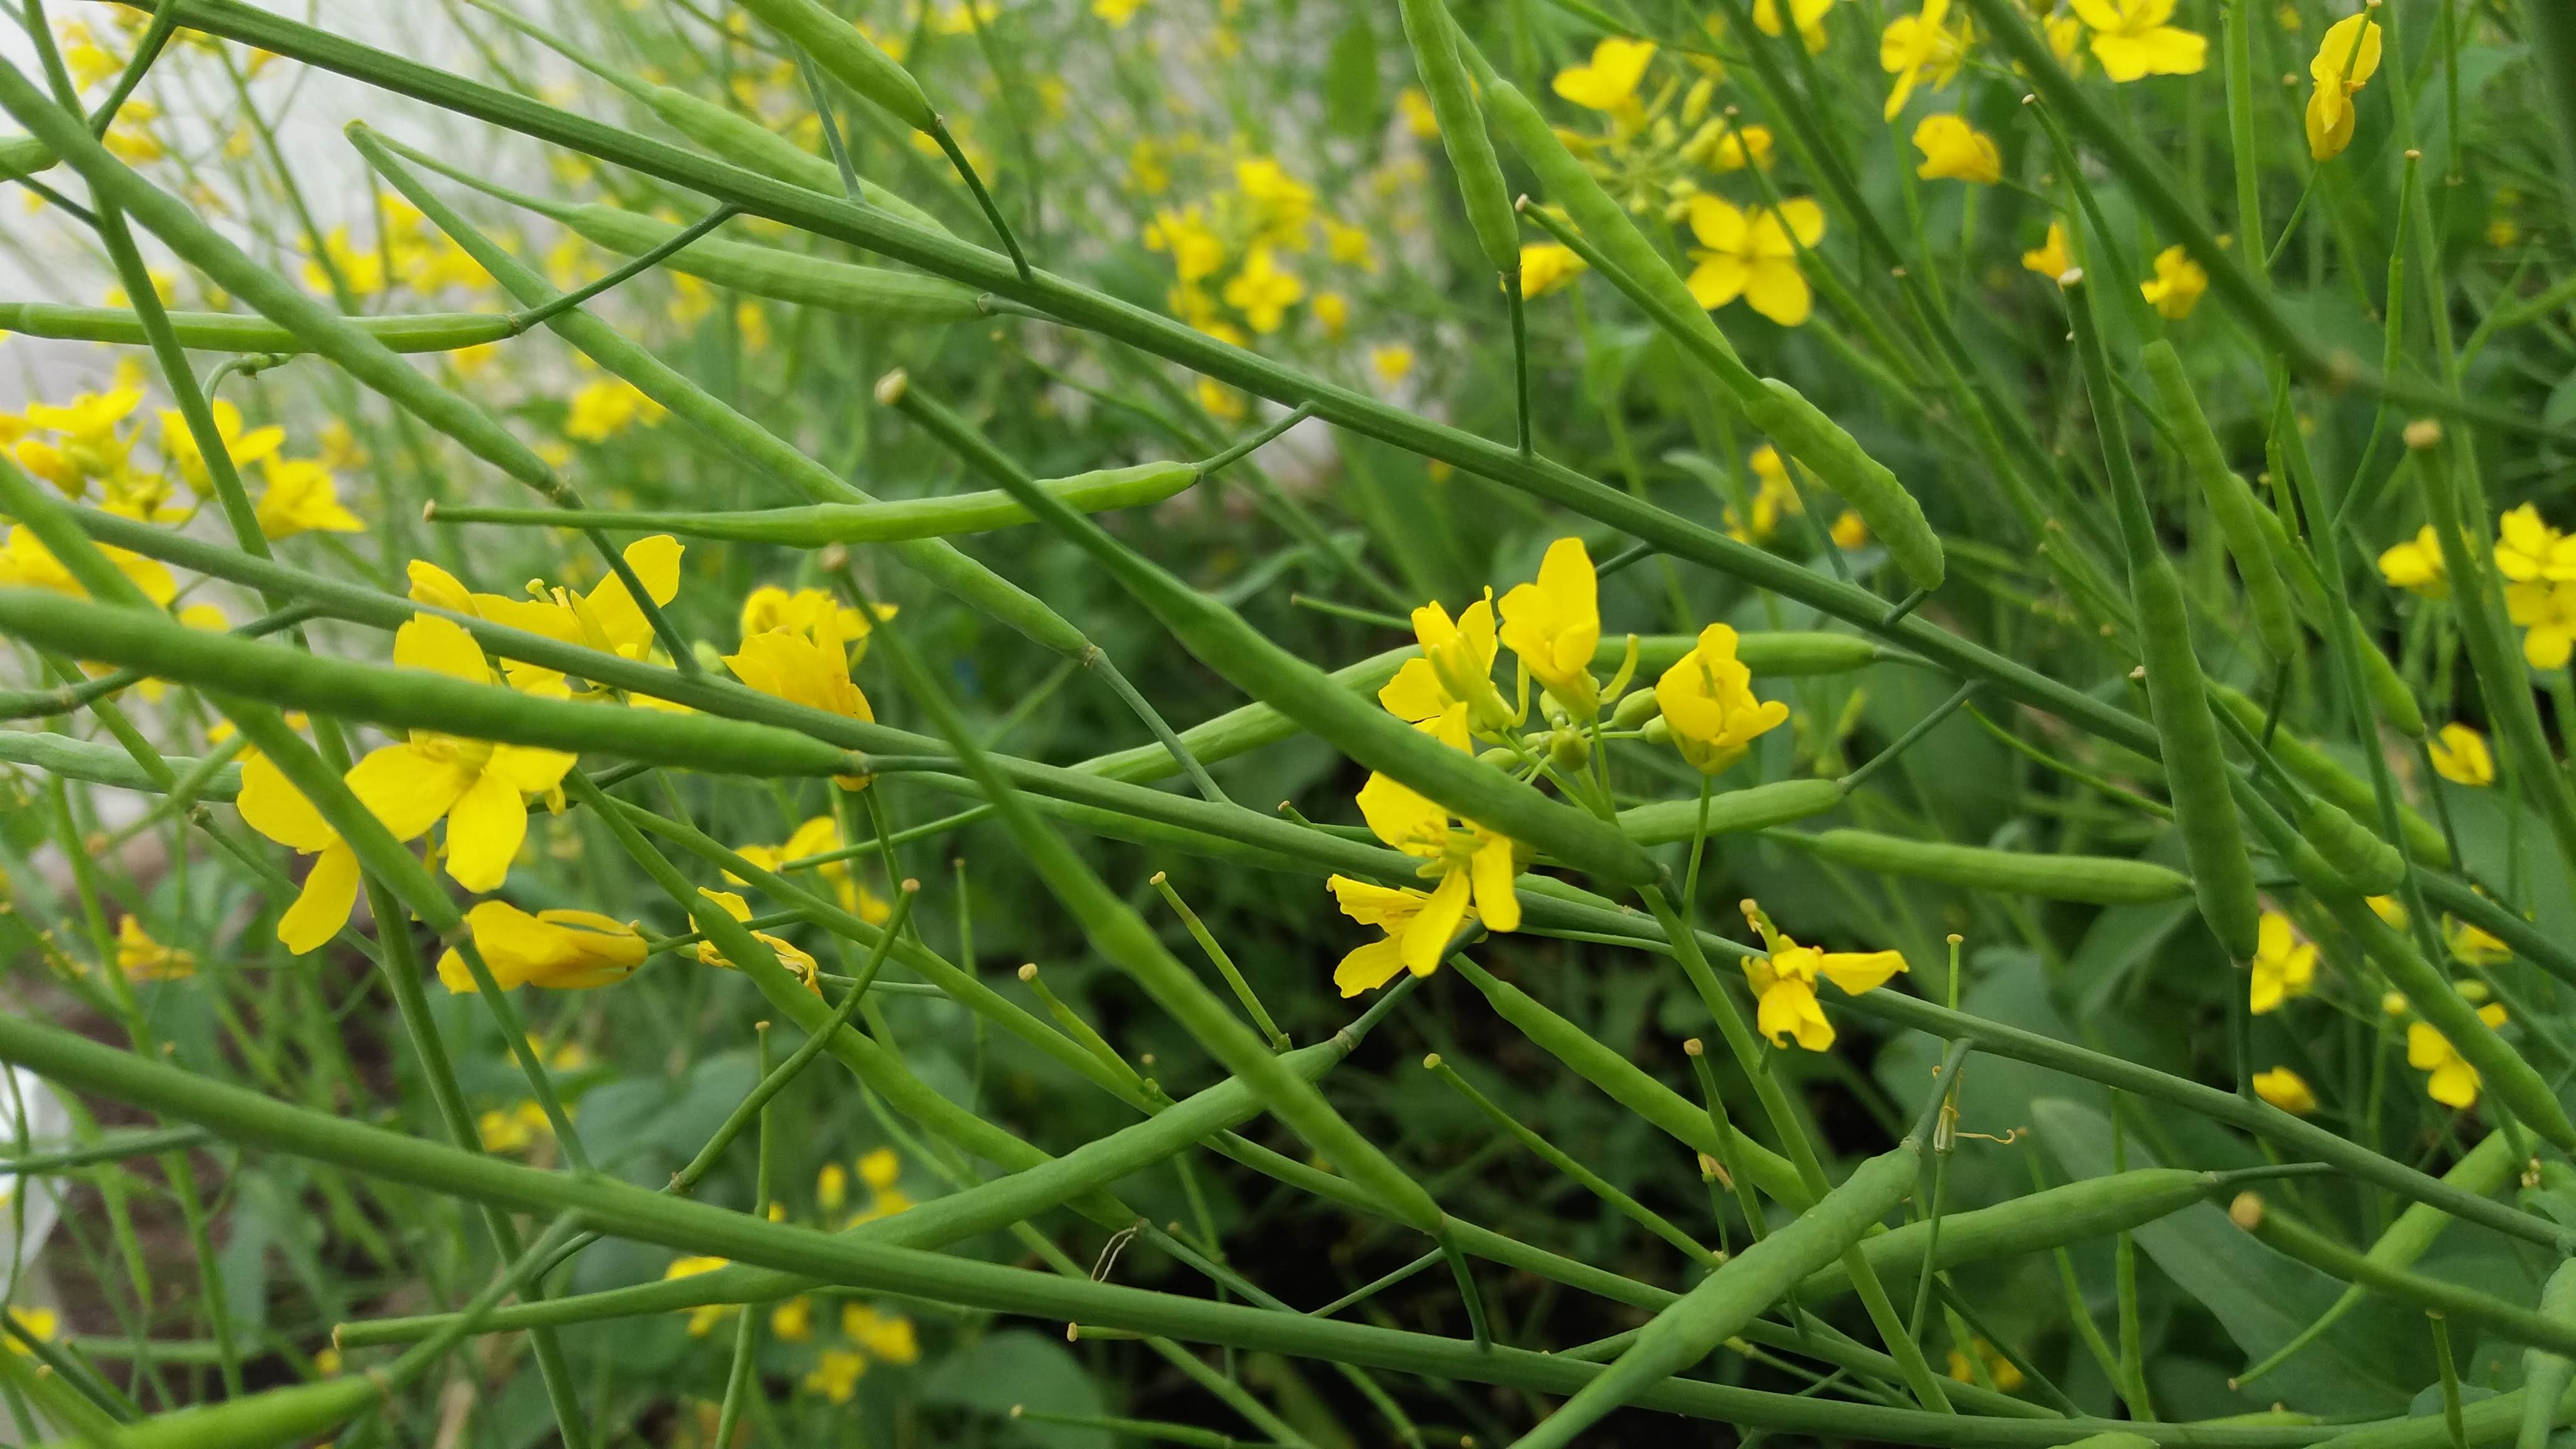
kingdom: Plantae
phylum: Tracheophyta
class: Magnoliopsida
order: Brassicales
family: Brassicaceae
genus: Brassica
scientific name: Brassica rapa
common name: Field mustard
